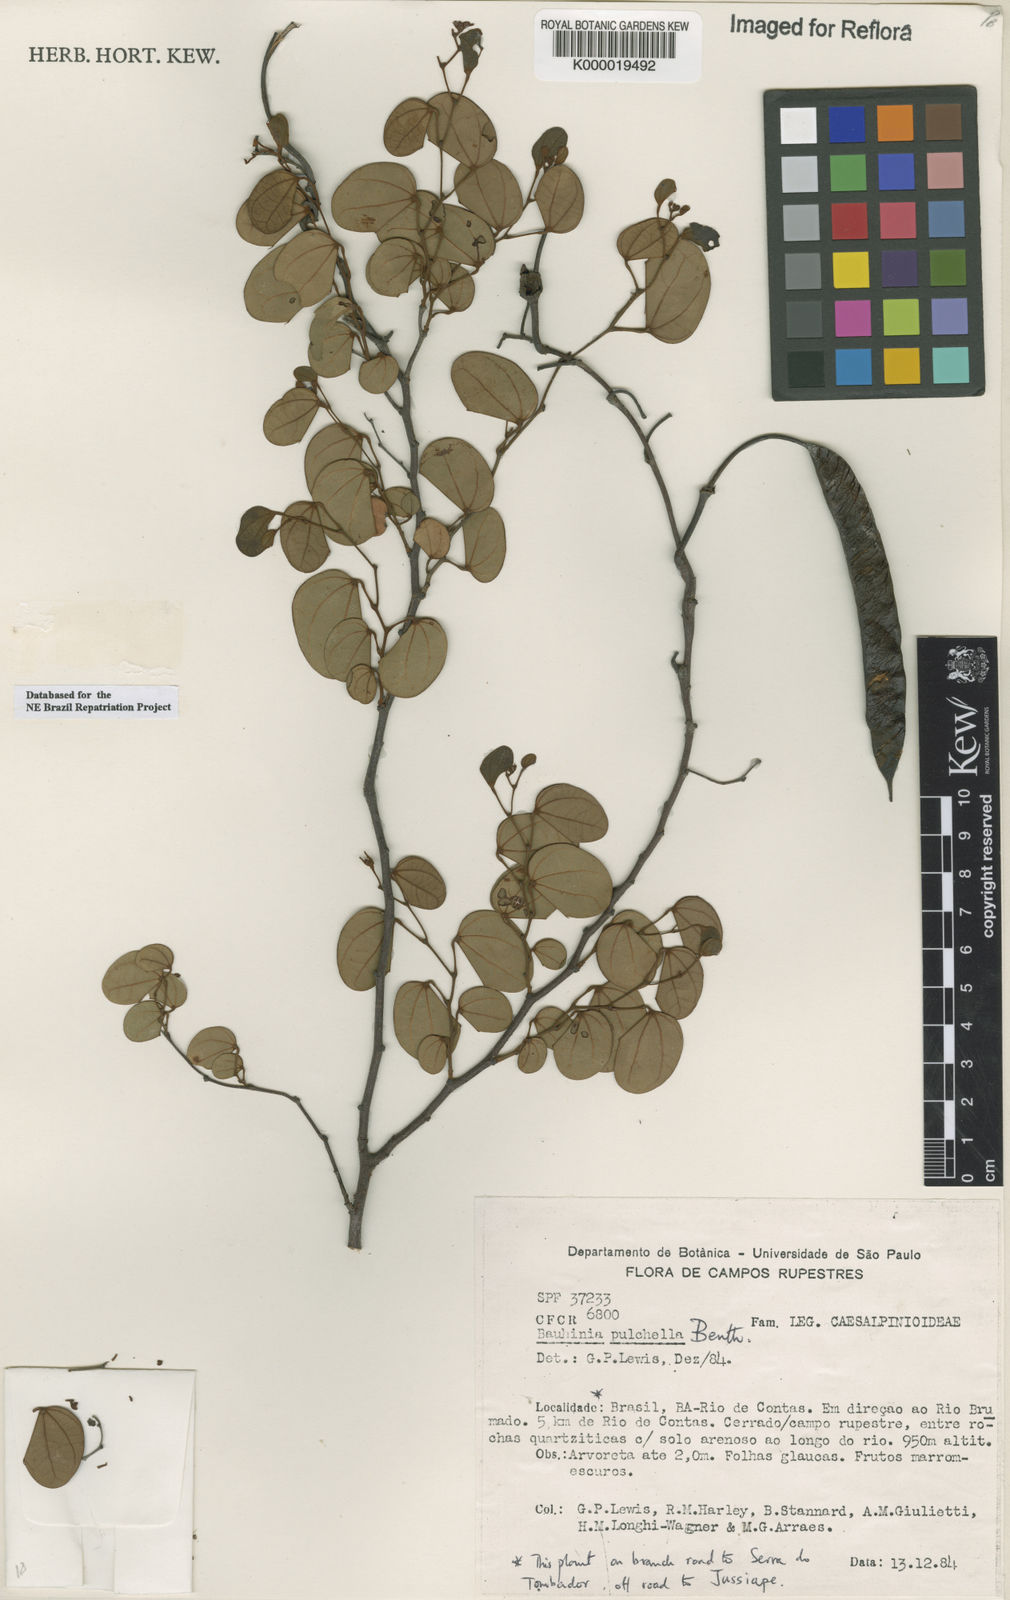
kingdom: Plantae
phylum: Tracheophyta
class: Magnoliopsida
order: Fabales
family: Fabaceae
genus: Bauhinia
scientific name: Bauhinia pulchella
